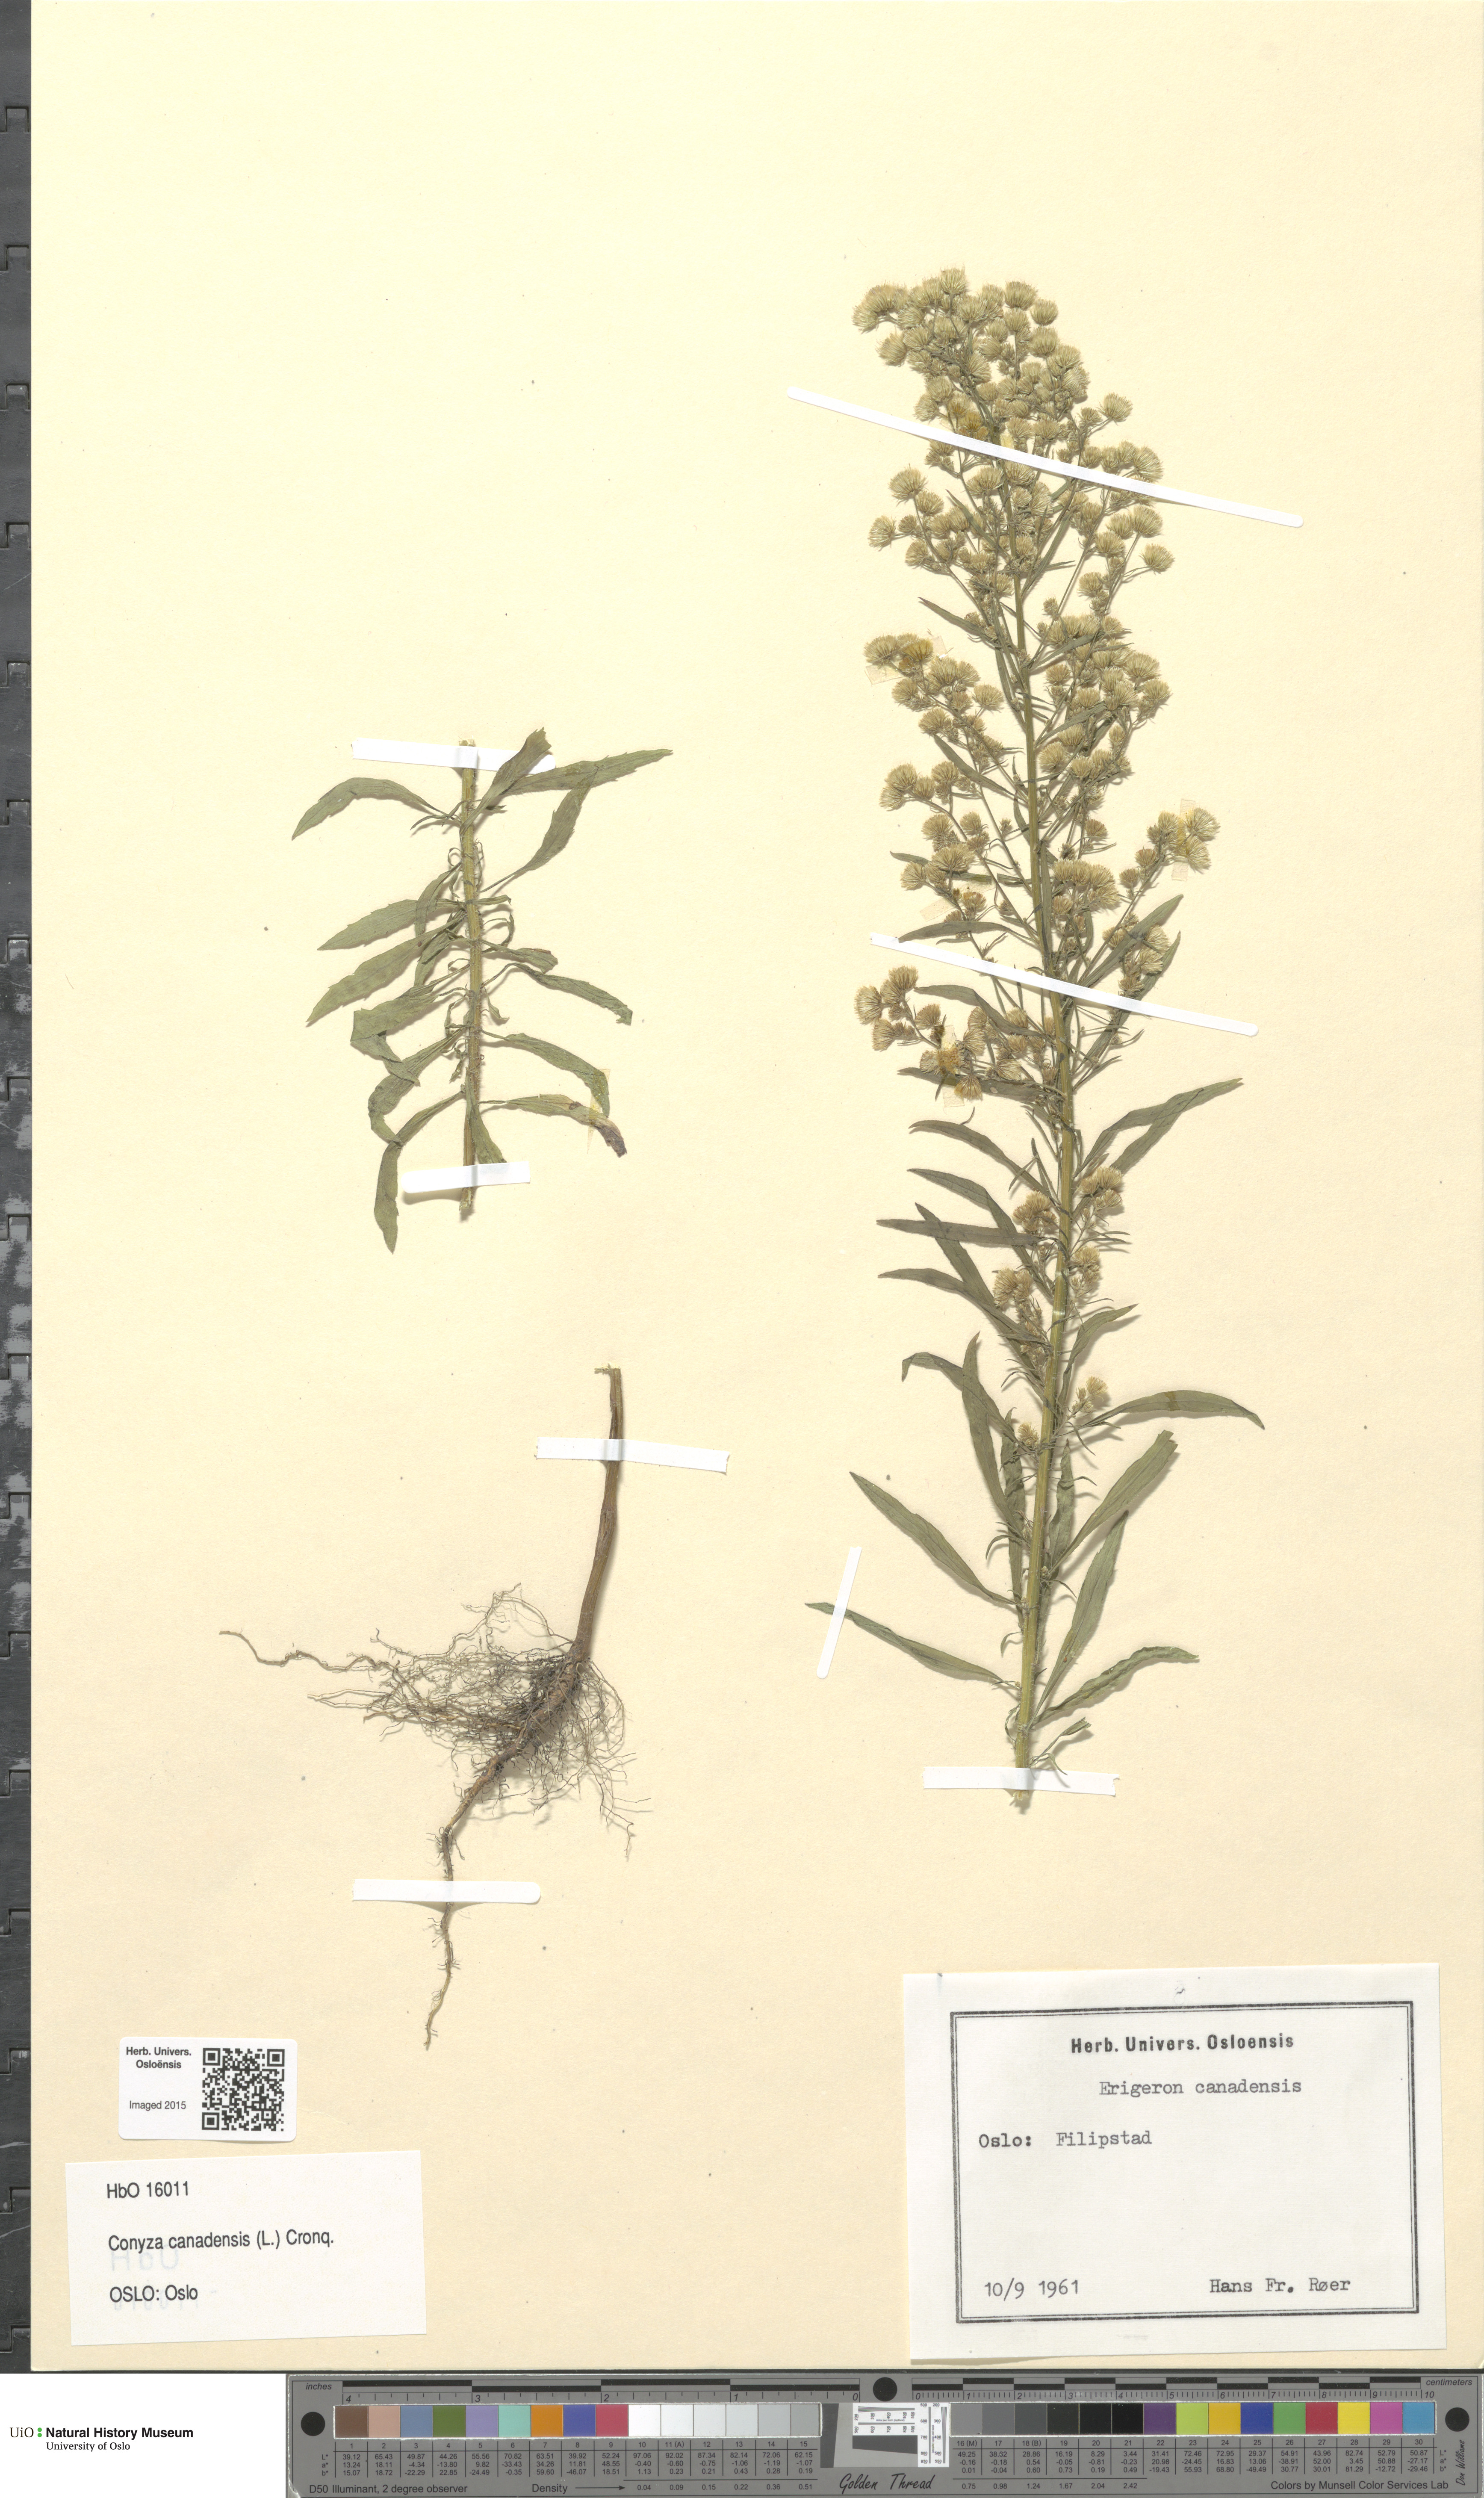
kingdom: Plantae
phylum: Tracheophyta
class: Magnoliopsida
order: Asterales
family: Asteraceae
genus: Erigeron
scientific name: Erigeron canadensis
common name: Canadian fleabane
